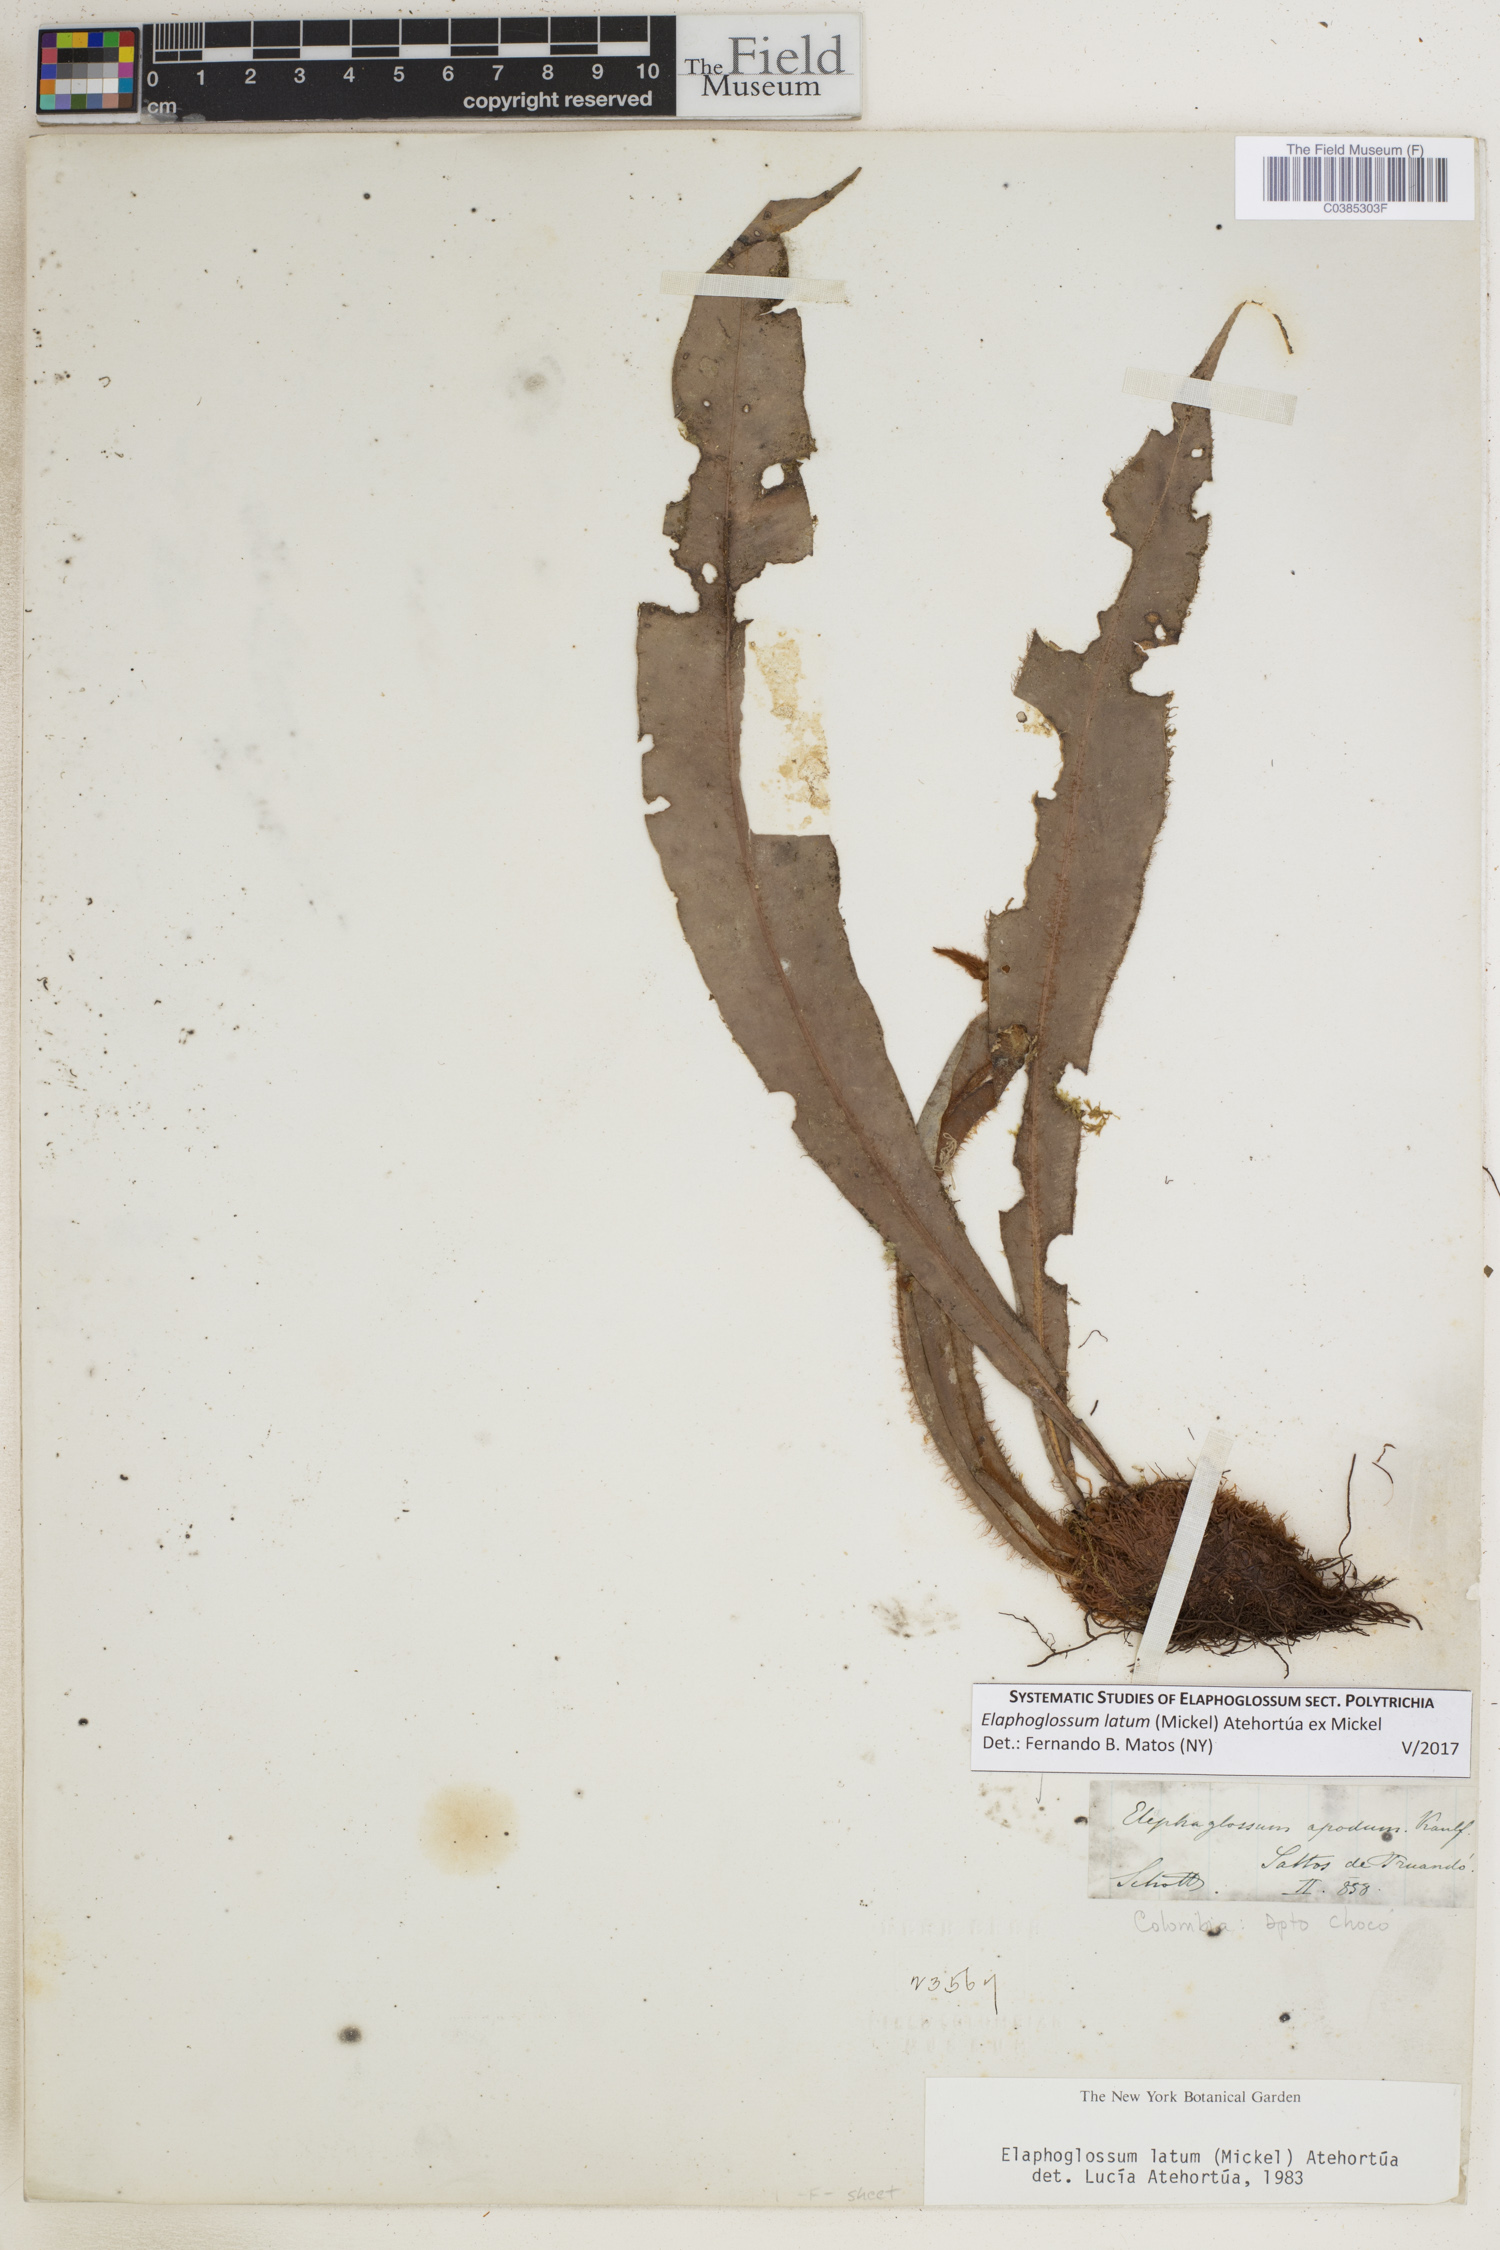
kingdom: Plantae
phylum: Tracheophyta
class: Polypodiopsida
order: Polypodiales
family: Dryopteridaceae
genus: Elaphoglossum
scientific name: Elaphoglossum latum
